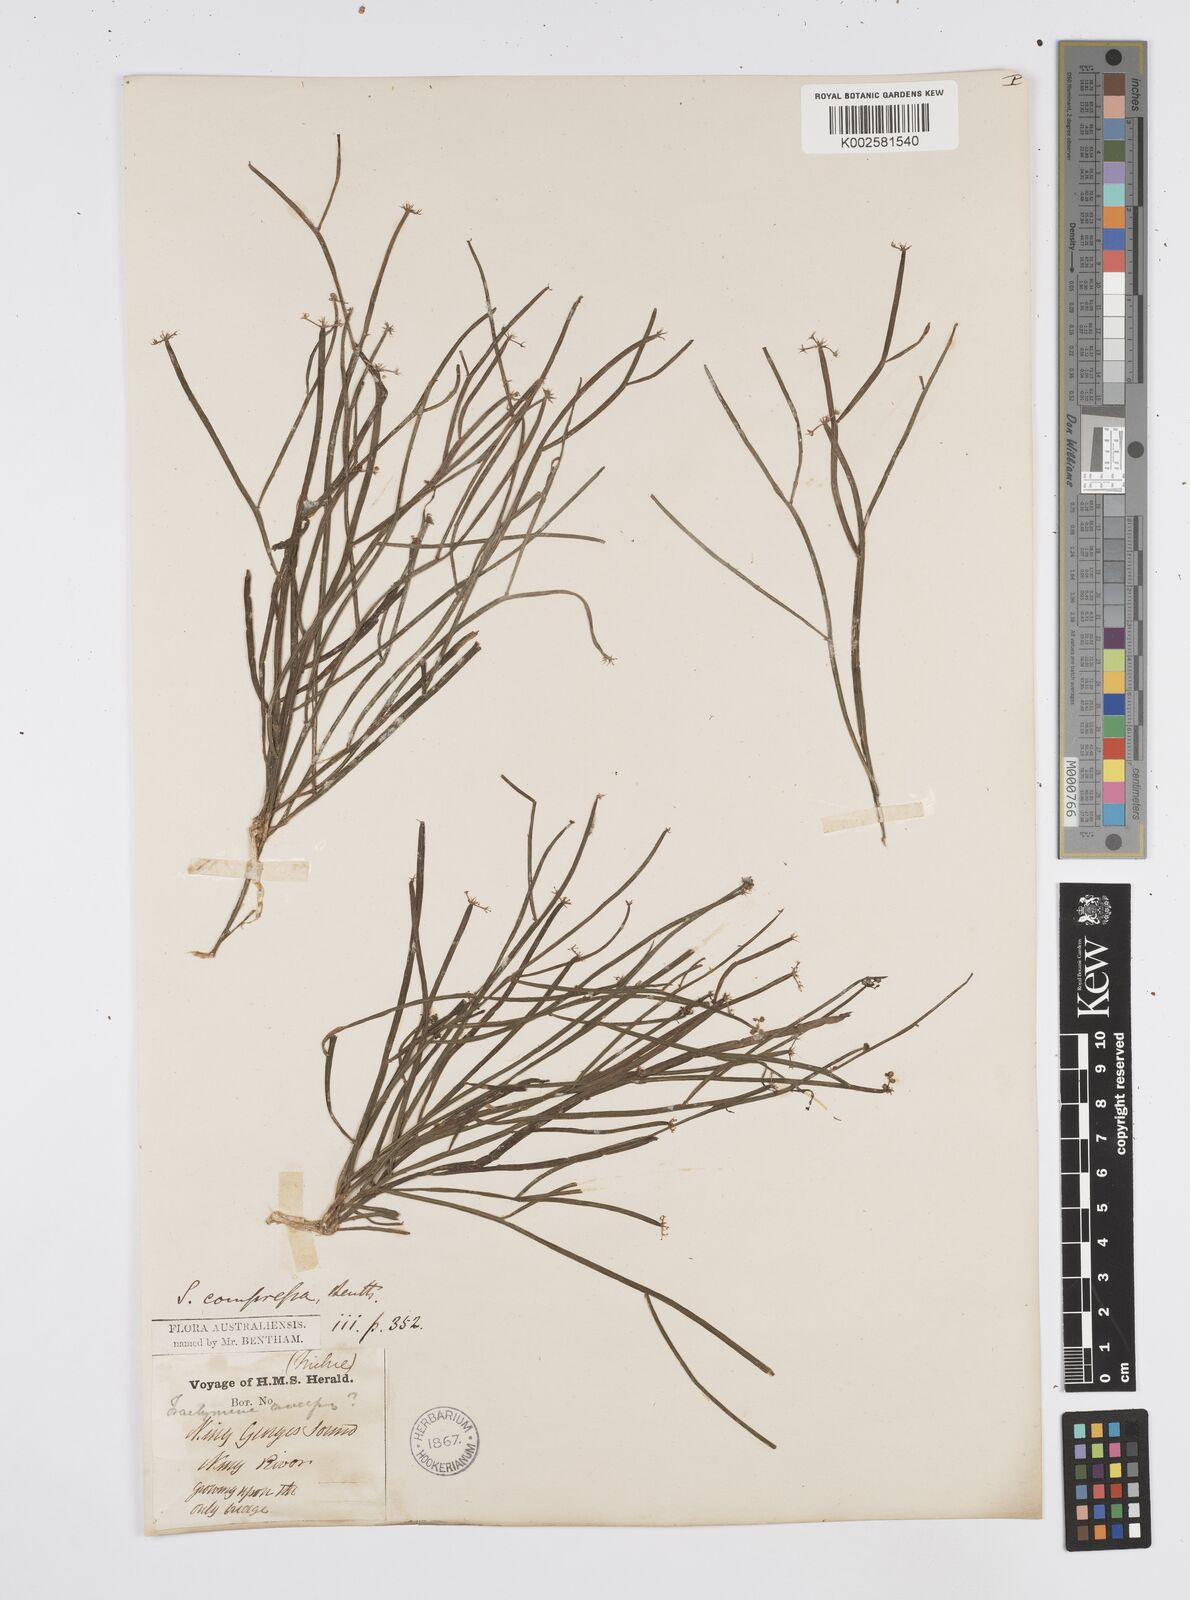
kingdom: Plantae
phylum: Tracheophyta
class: Magnoliopsida
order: Apiales
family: Apiaceae
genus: Centella
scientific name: Centella
